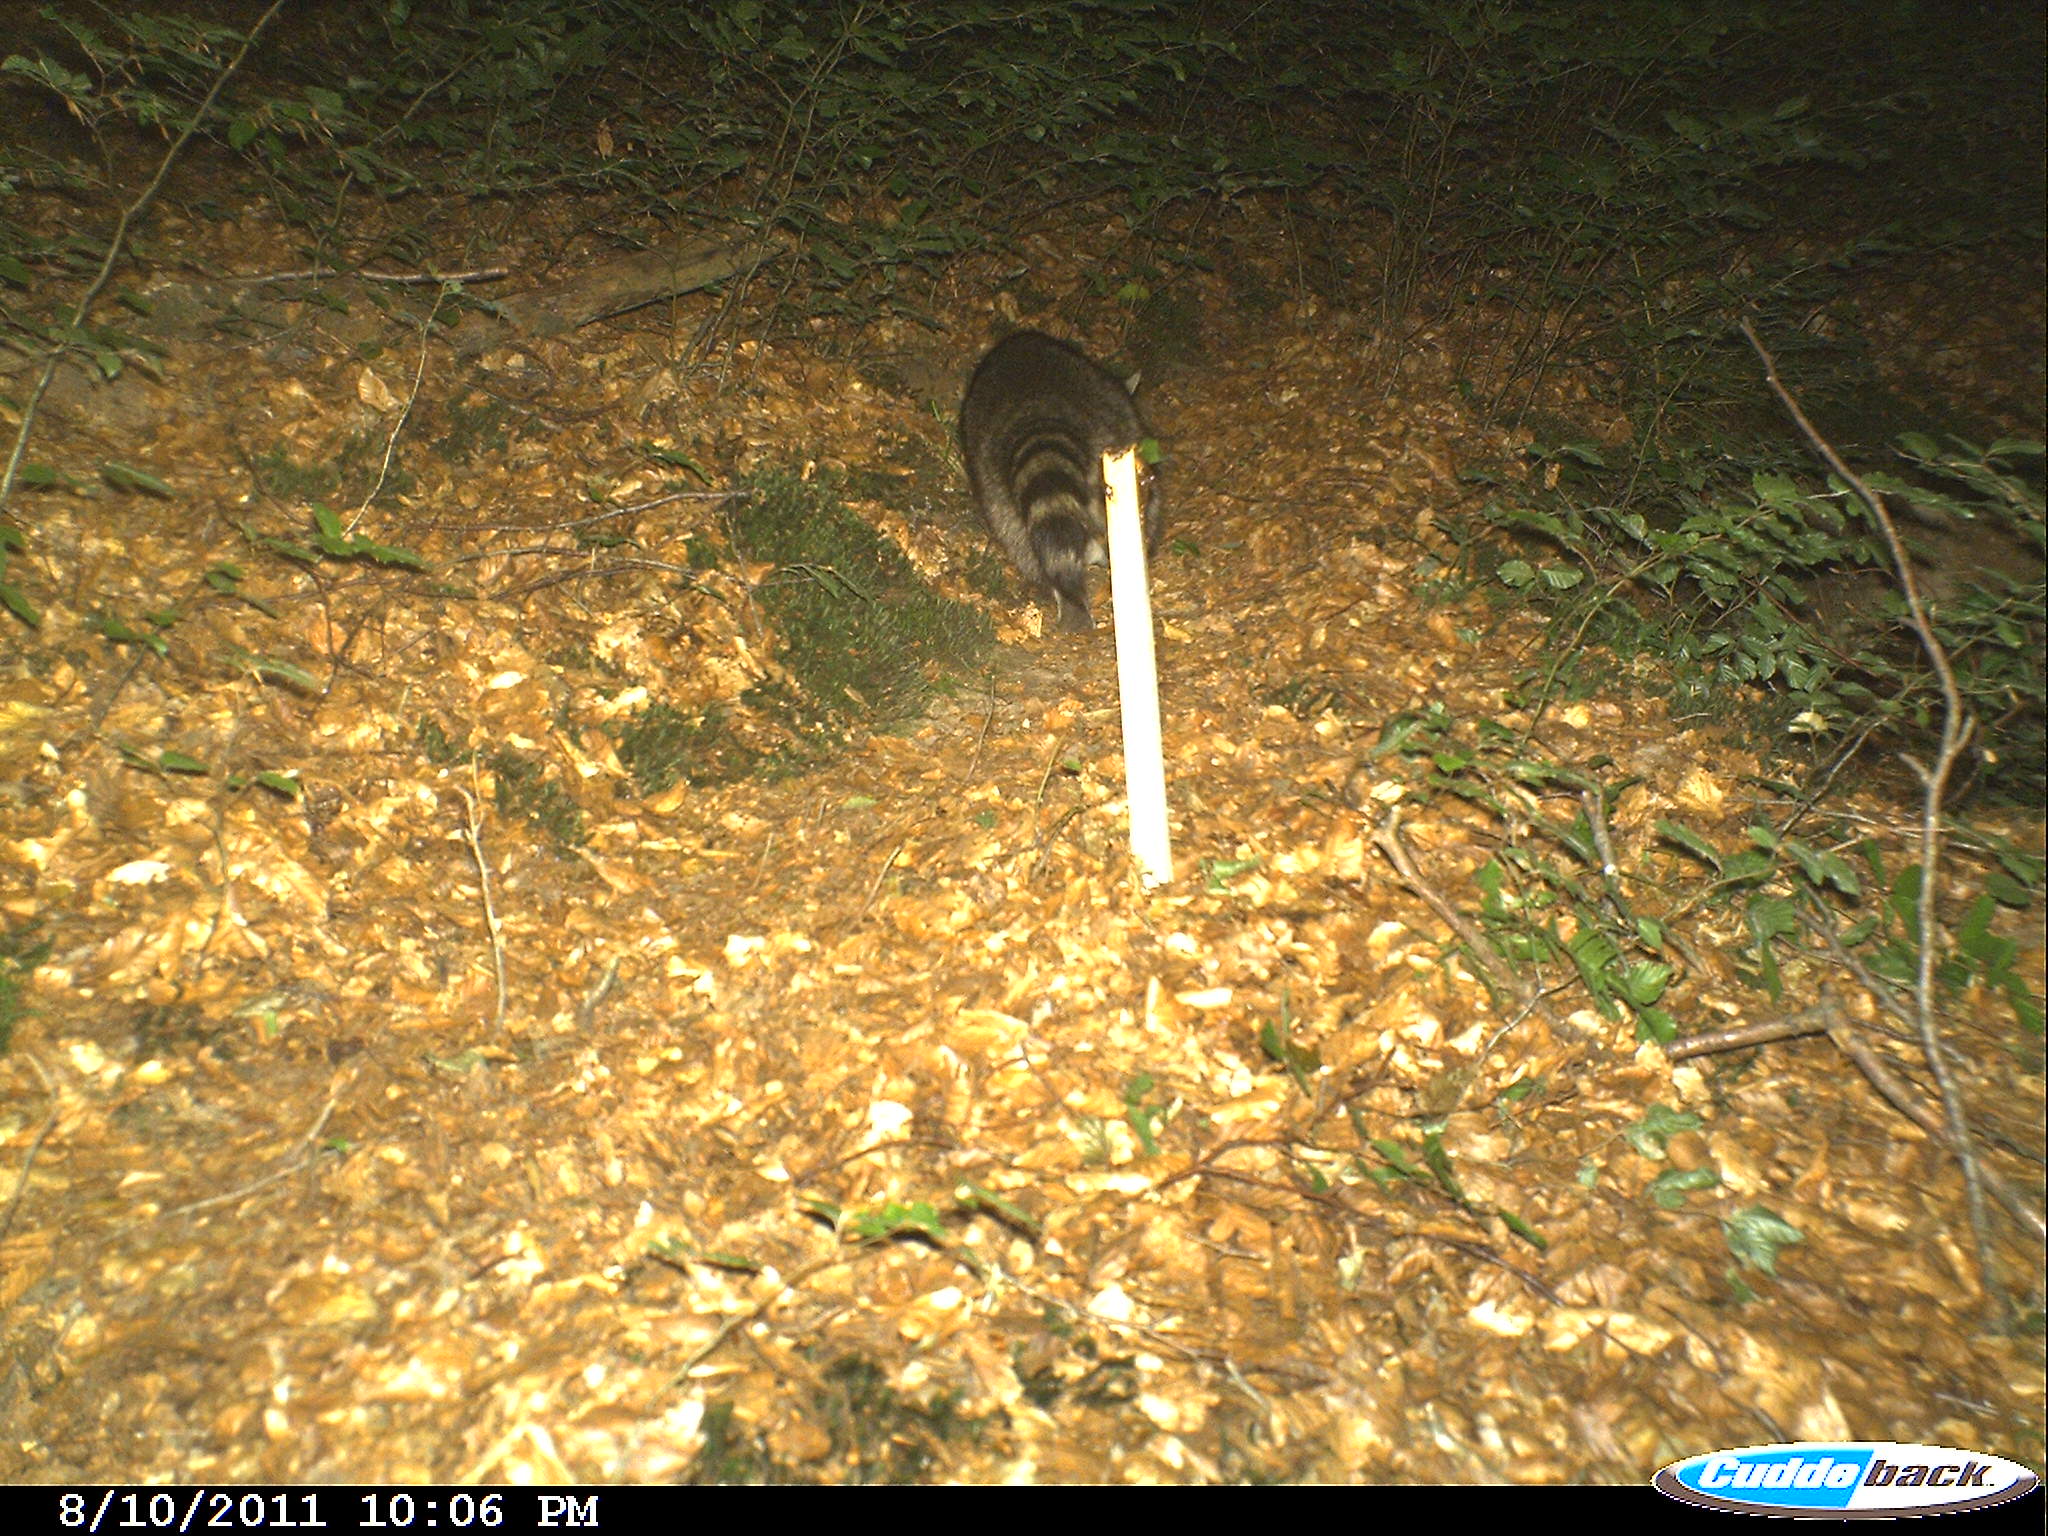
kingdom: Animalia
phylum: Chordata
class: Mammalia
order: Carnivora
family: Procyonidae
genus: Procyon
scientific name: Procyon lotor
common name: Raccoon
